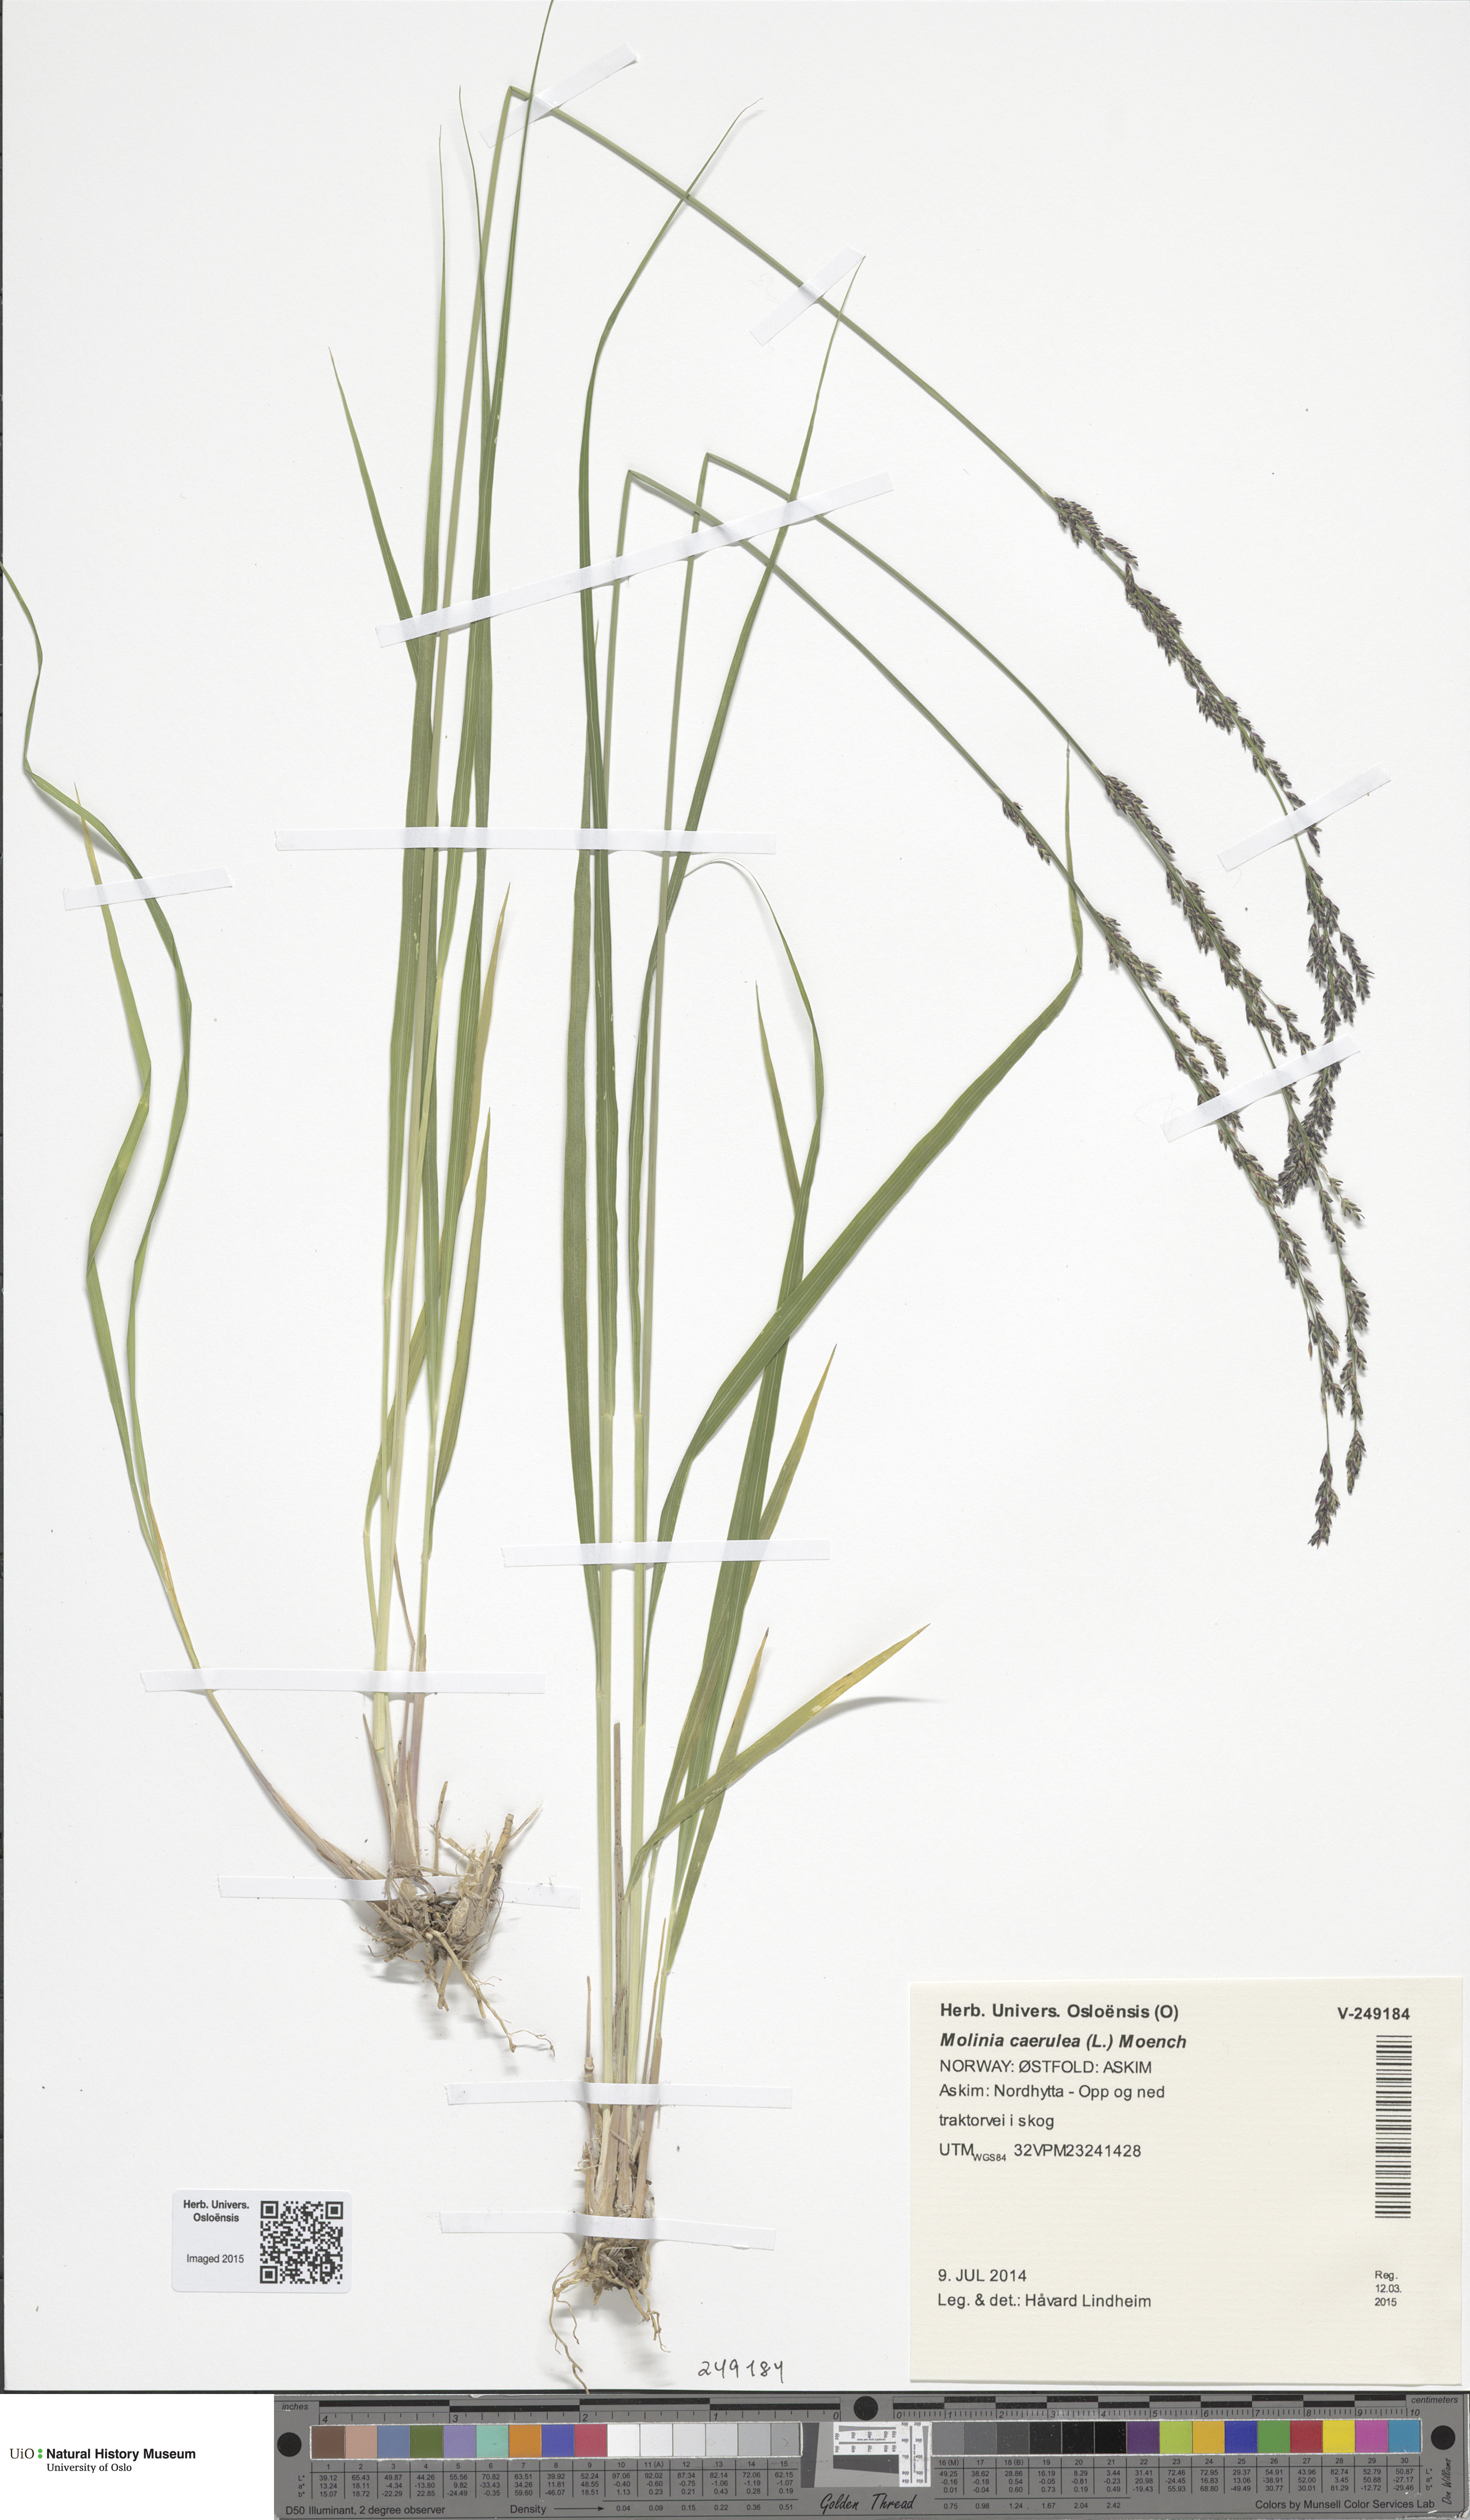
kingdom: Plantae
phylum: Tracheophyta
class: Liliopsida
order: Poales
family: Poaceae
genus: Molinia
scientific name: Molinia caerulea
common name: Purple moor-grass
